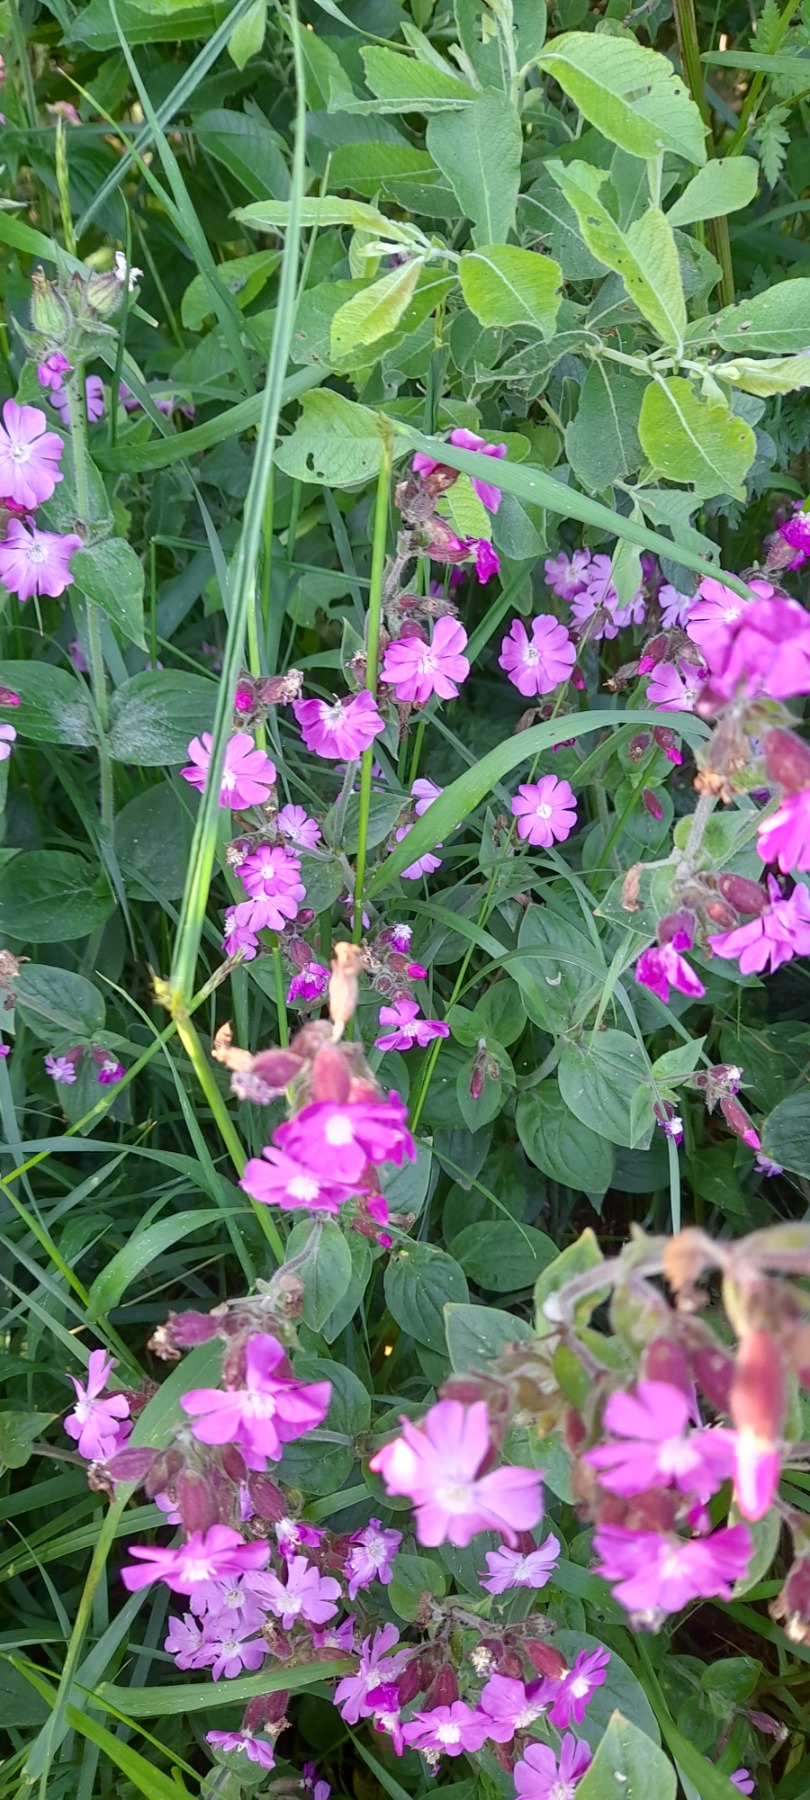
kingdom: Plantae
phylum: Tracheophyta
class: Magnoliopsida
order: Caryophyllales
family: Caryophyllaceae
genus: Silene
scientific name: Silene dioica
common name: Dagpragtstjerne
